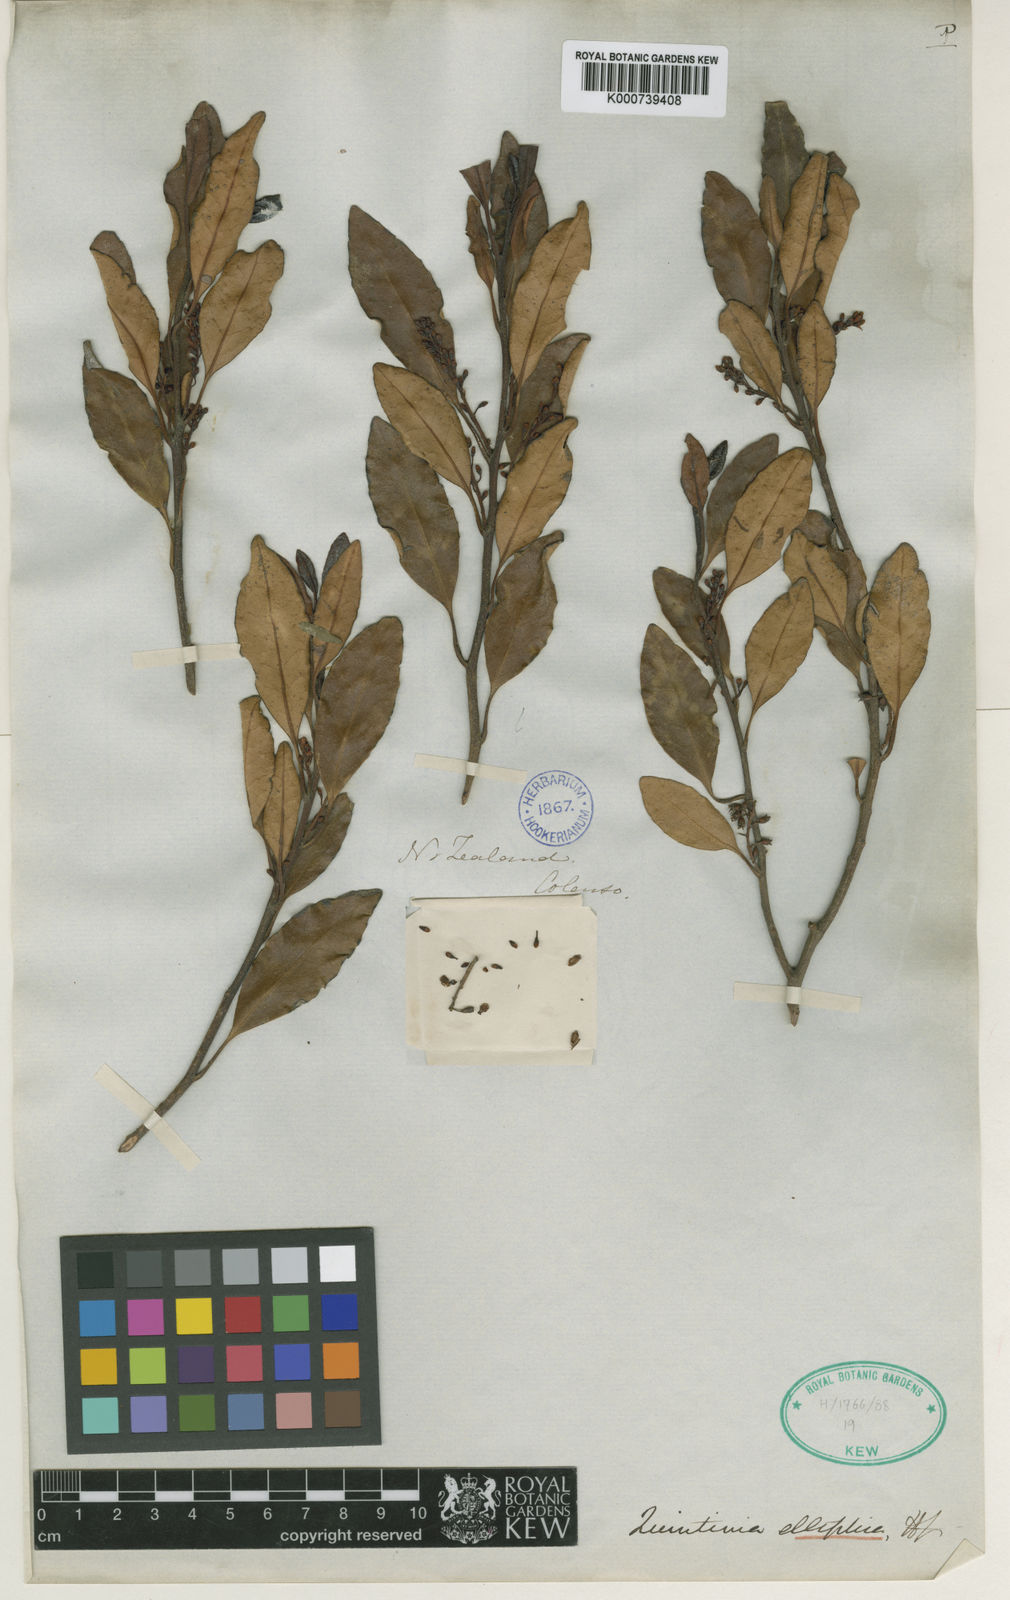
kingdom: Plantae
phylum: Tracheophyta
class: Magnoliopsida
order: Paracryphiales
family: Paracryphiaceae
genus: Quintinia
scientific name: Quintinia elliptica
